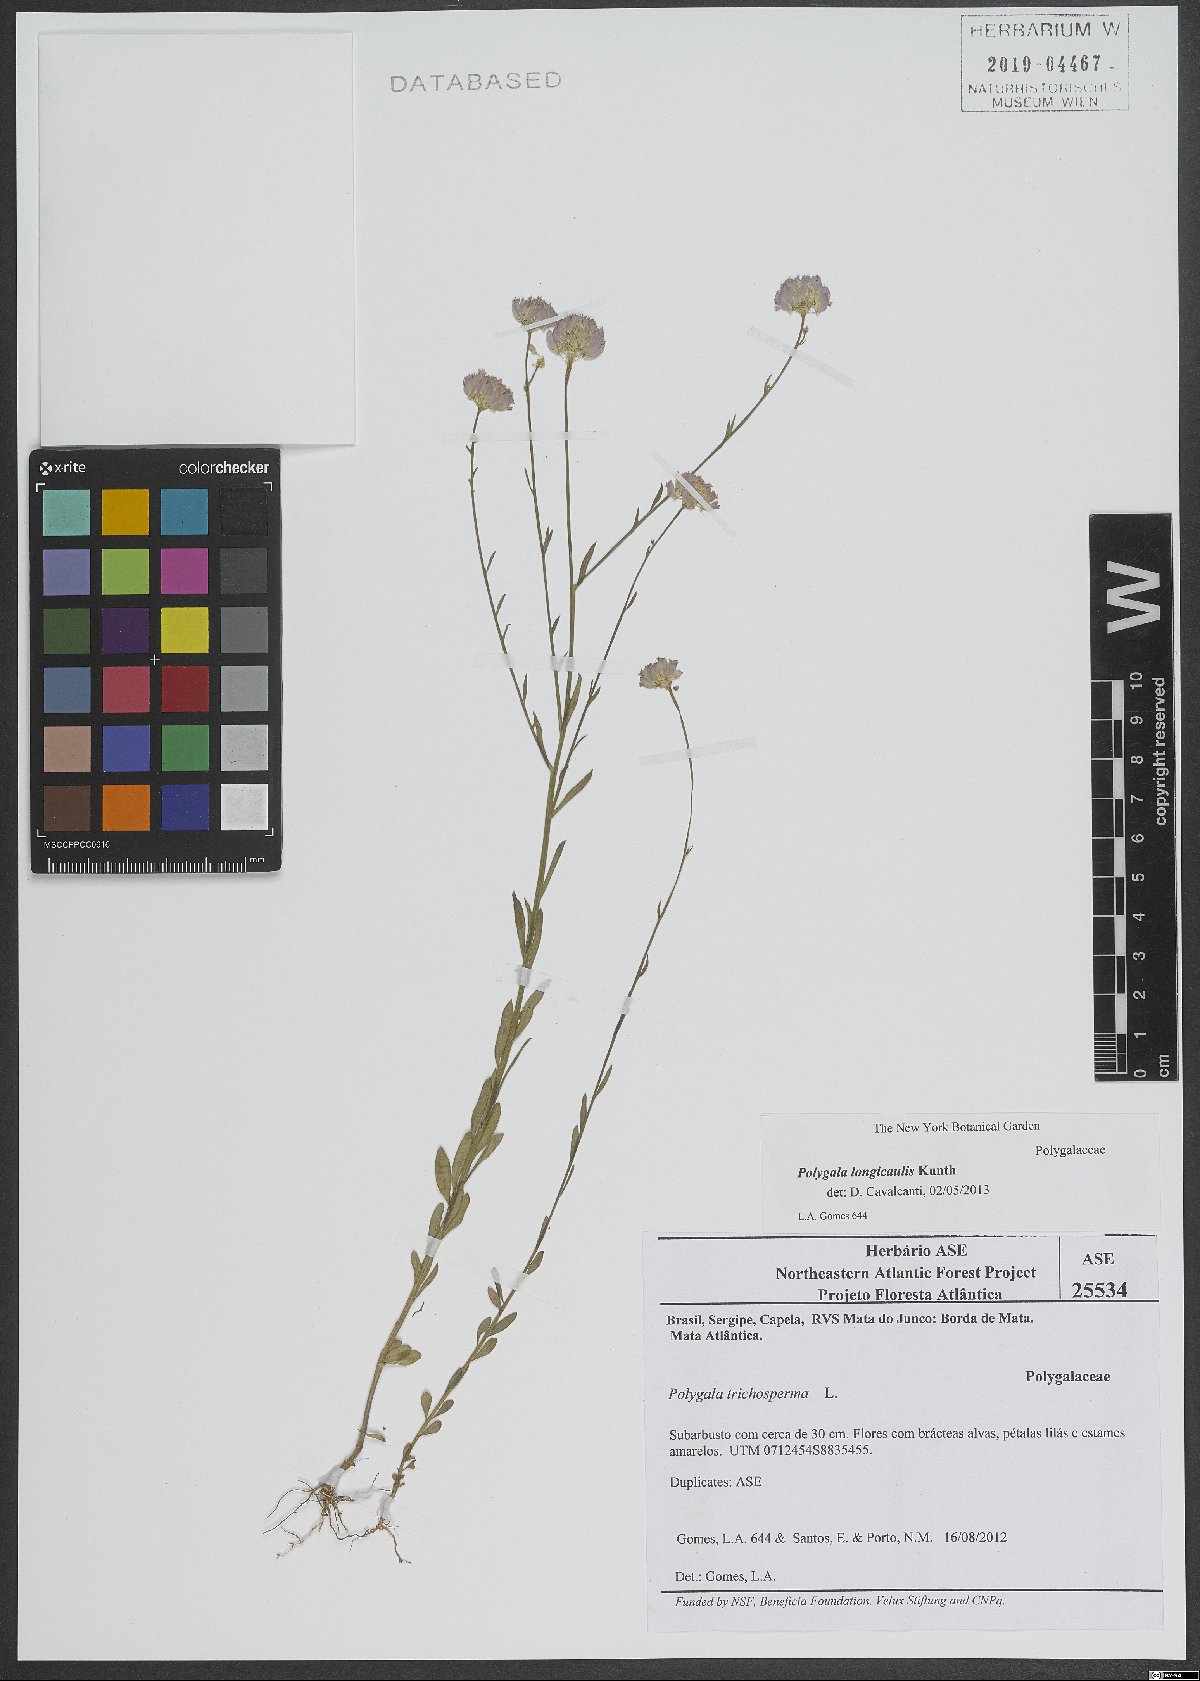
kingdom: Plantae
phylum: Tracheophyta
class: Magnoliopsida
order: Fabales
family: Polygalaceae
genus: Polygala
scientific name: Polygala longicaulis
